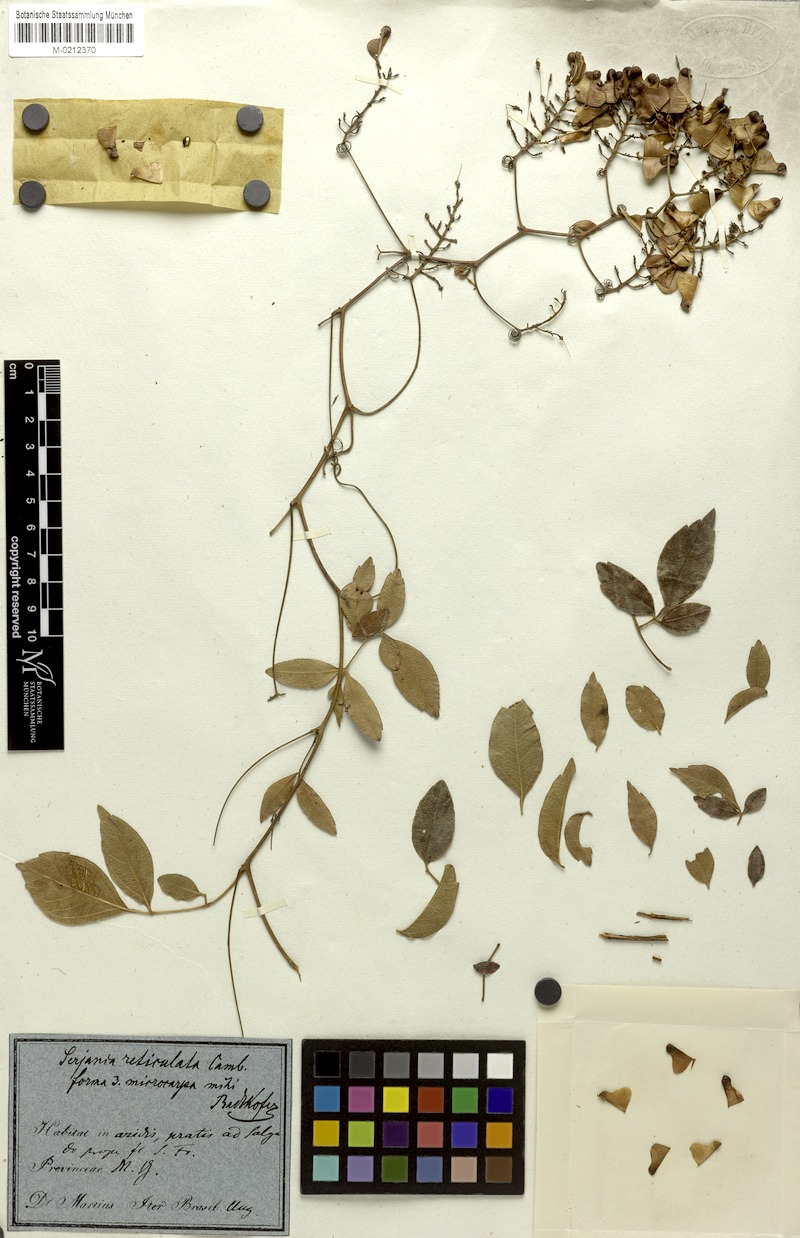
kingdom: Plantae
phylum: Tracheophyta
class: Magnoliopsida
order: Sapindales
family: Sapindaceae
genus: Serjania
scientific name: Serjania reticulata
